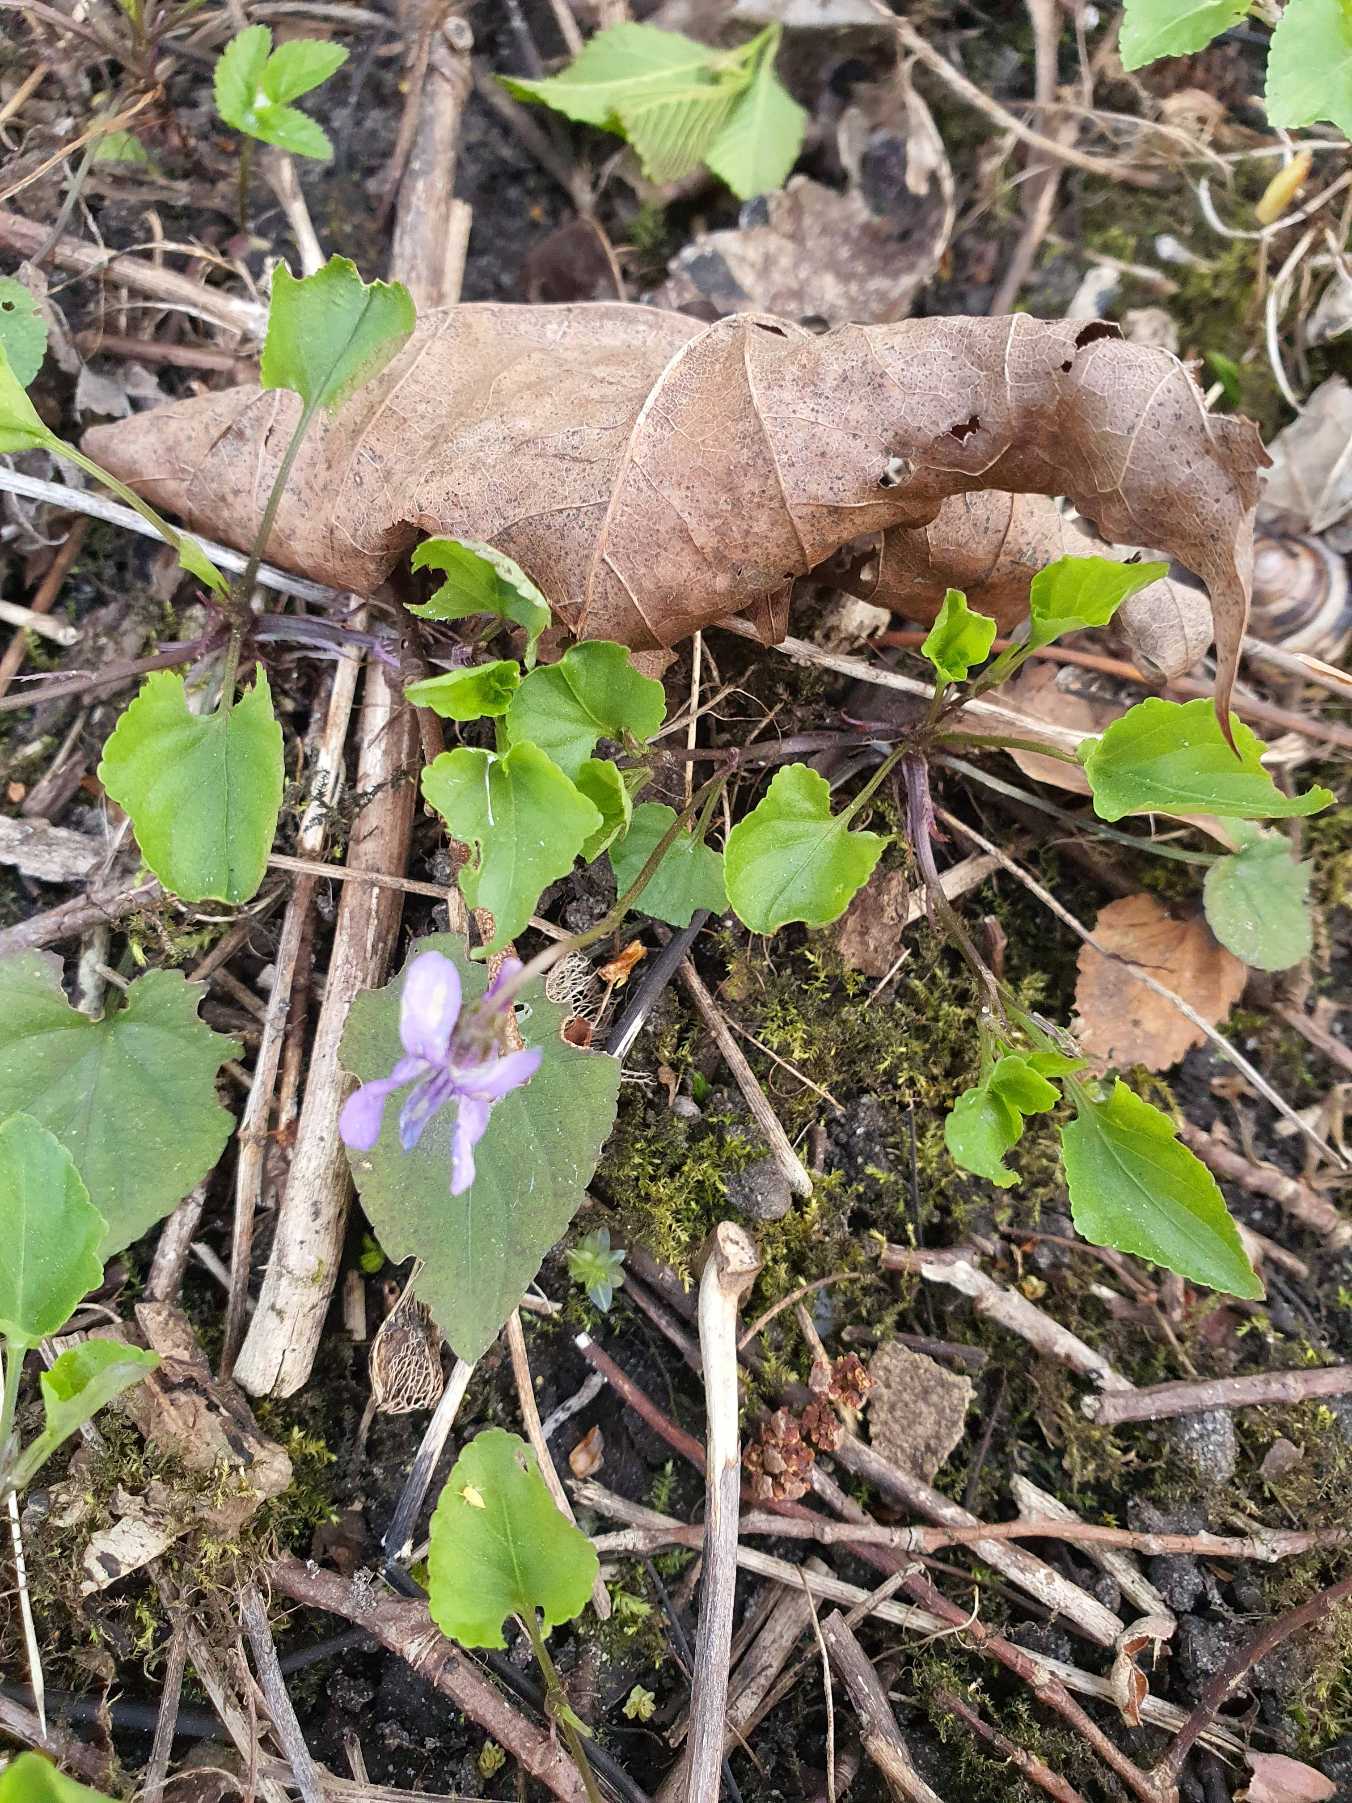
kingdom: Plantae
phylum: Tracheophyta
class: Magnoliopsida
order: Malpighiales
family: Violaceae
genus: Viola
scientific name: Viola reichenbachiana
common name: Skov-viol
